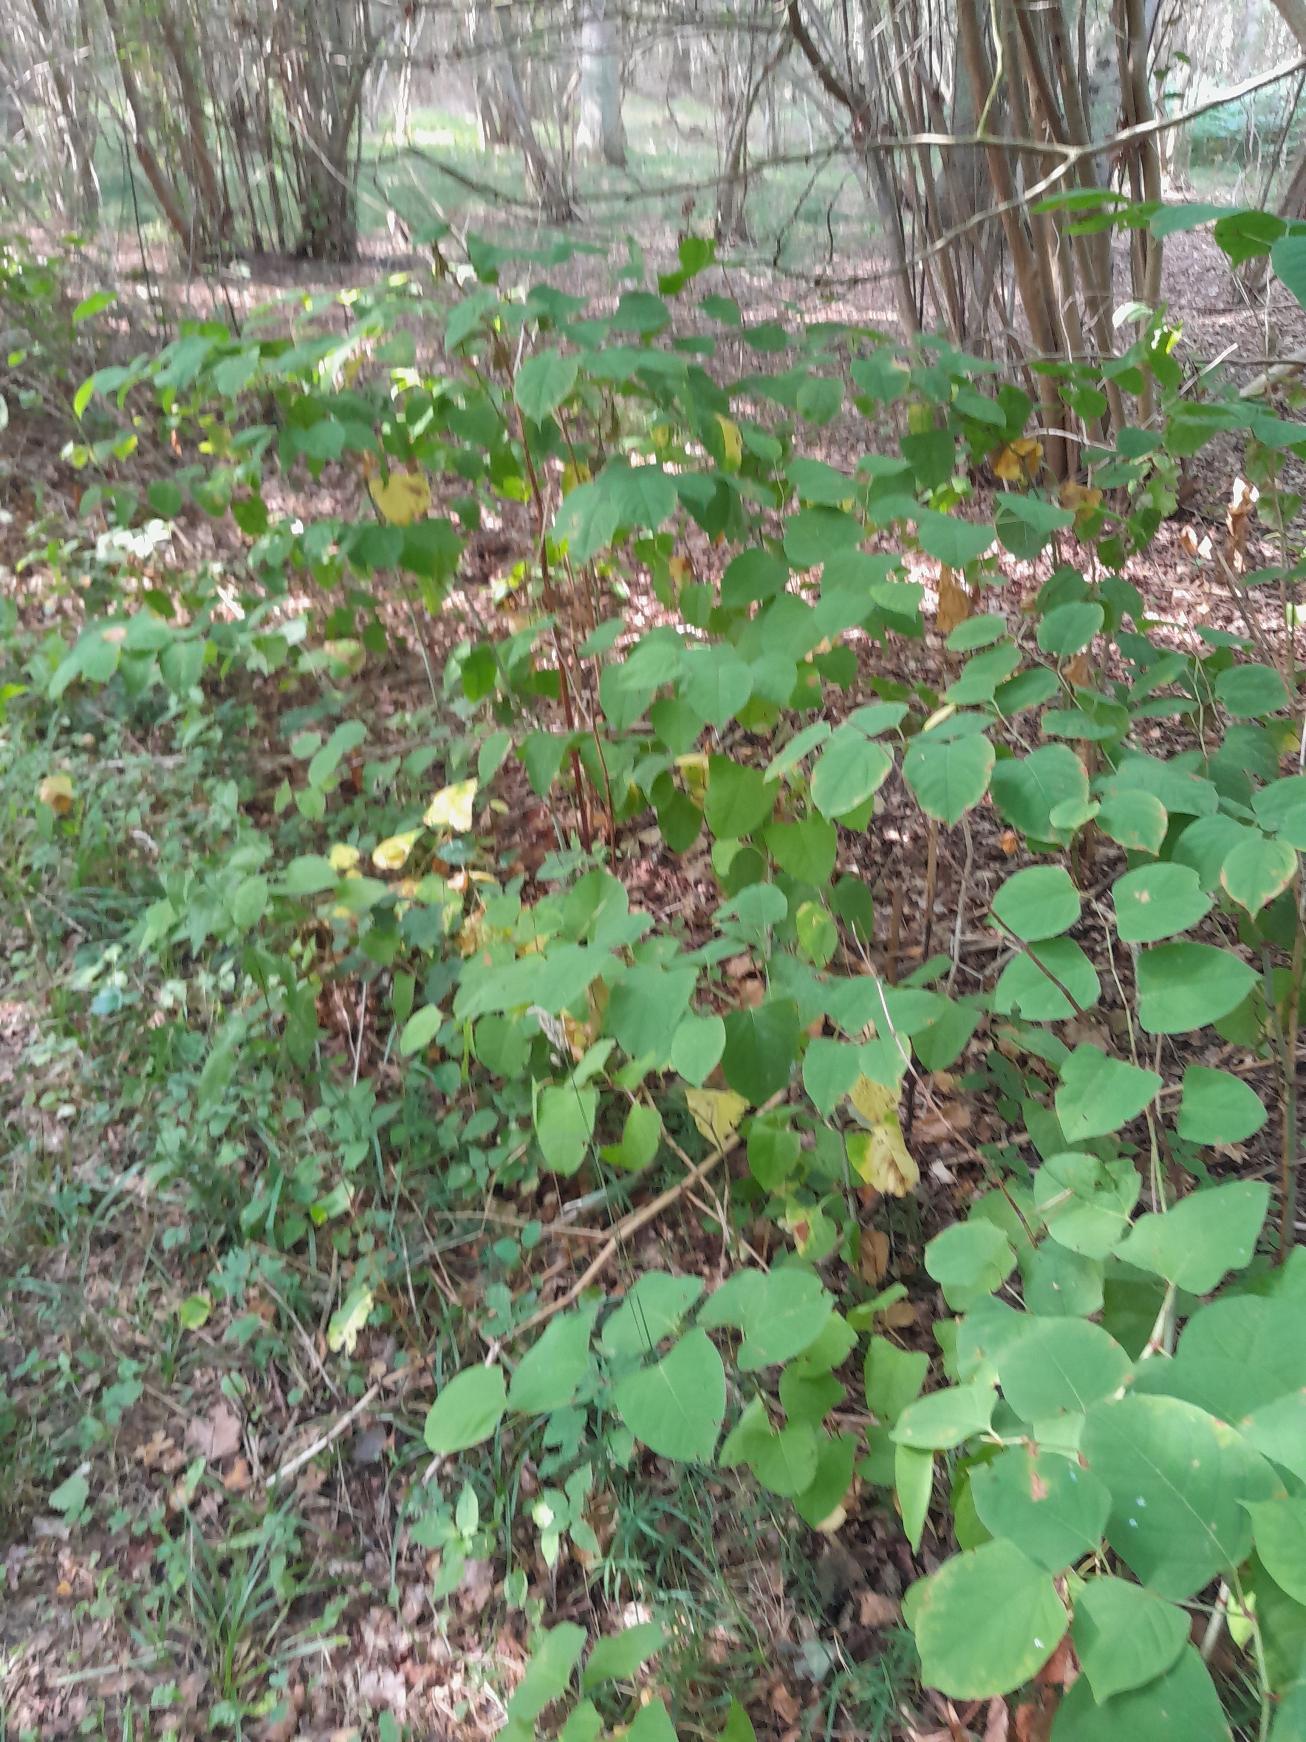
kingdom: Plantae
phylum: Tracheophyta
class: Magnoliopsida
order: Caryophyllales
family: Polygonaceae
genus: Reynoutria
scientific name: Reynoutria japonica
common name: Japan-pileurt
